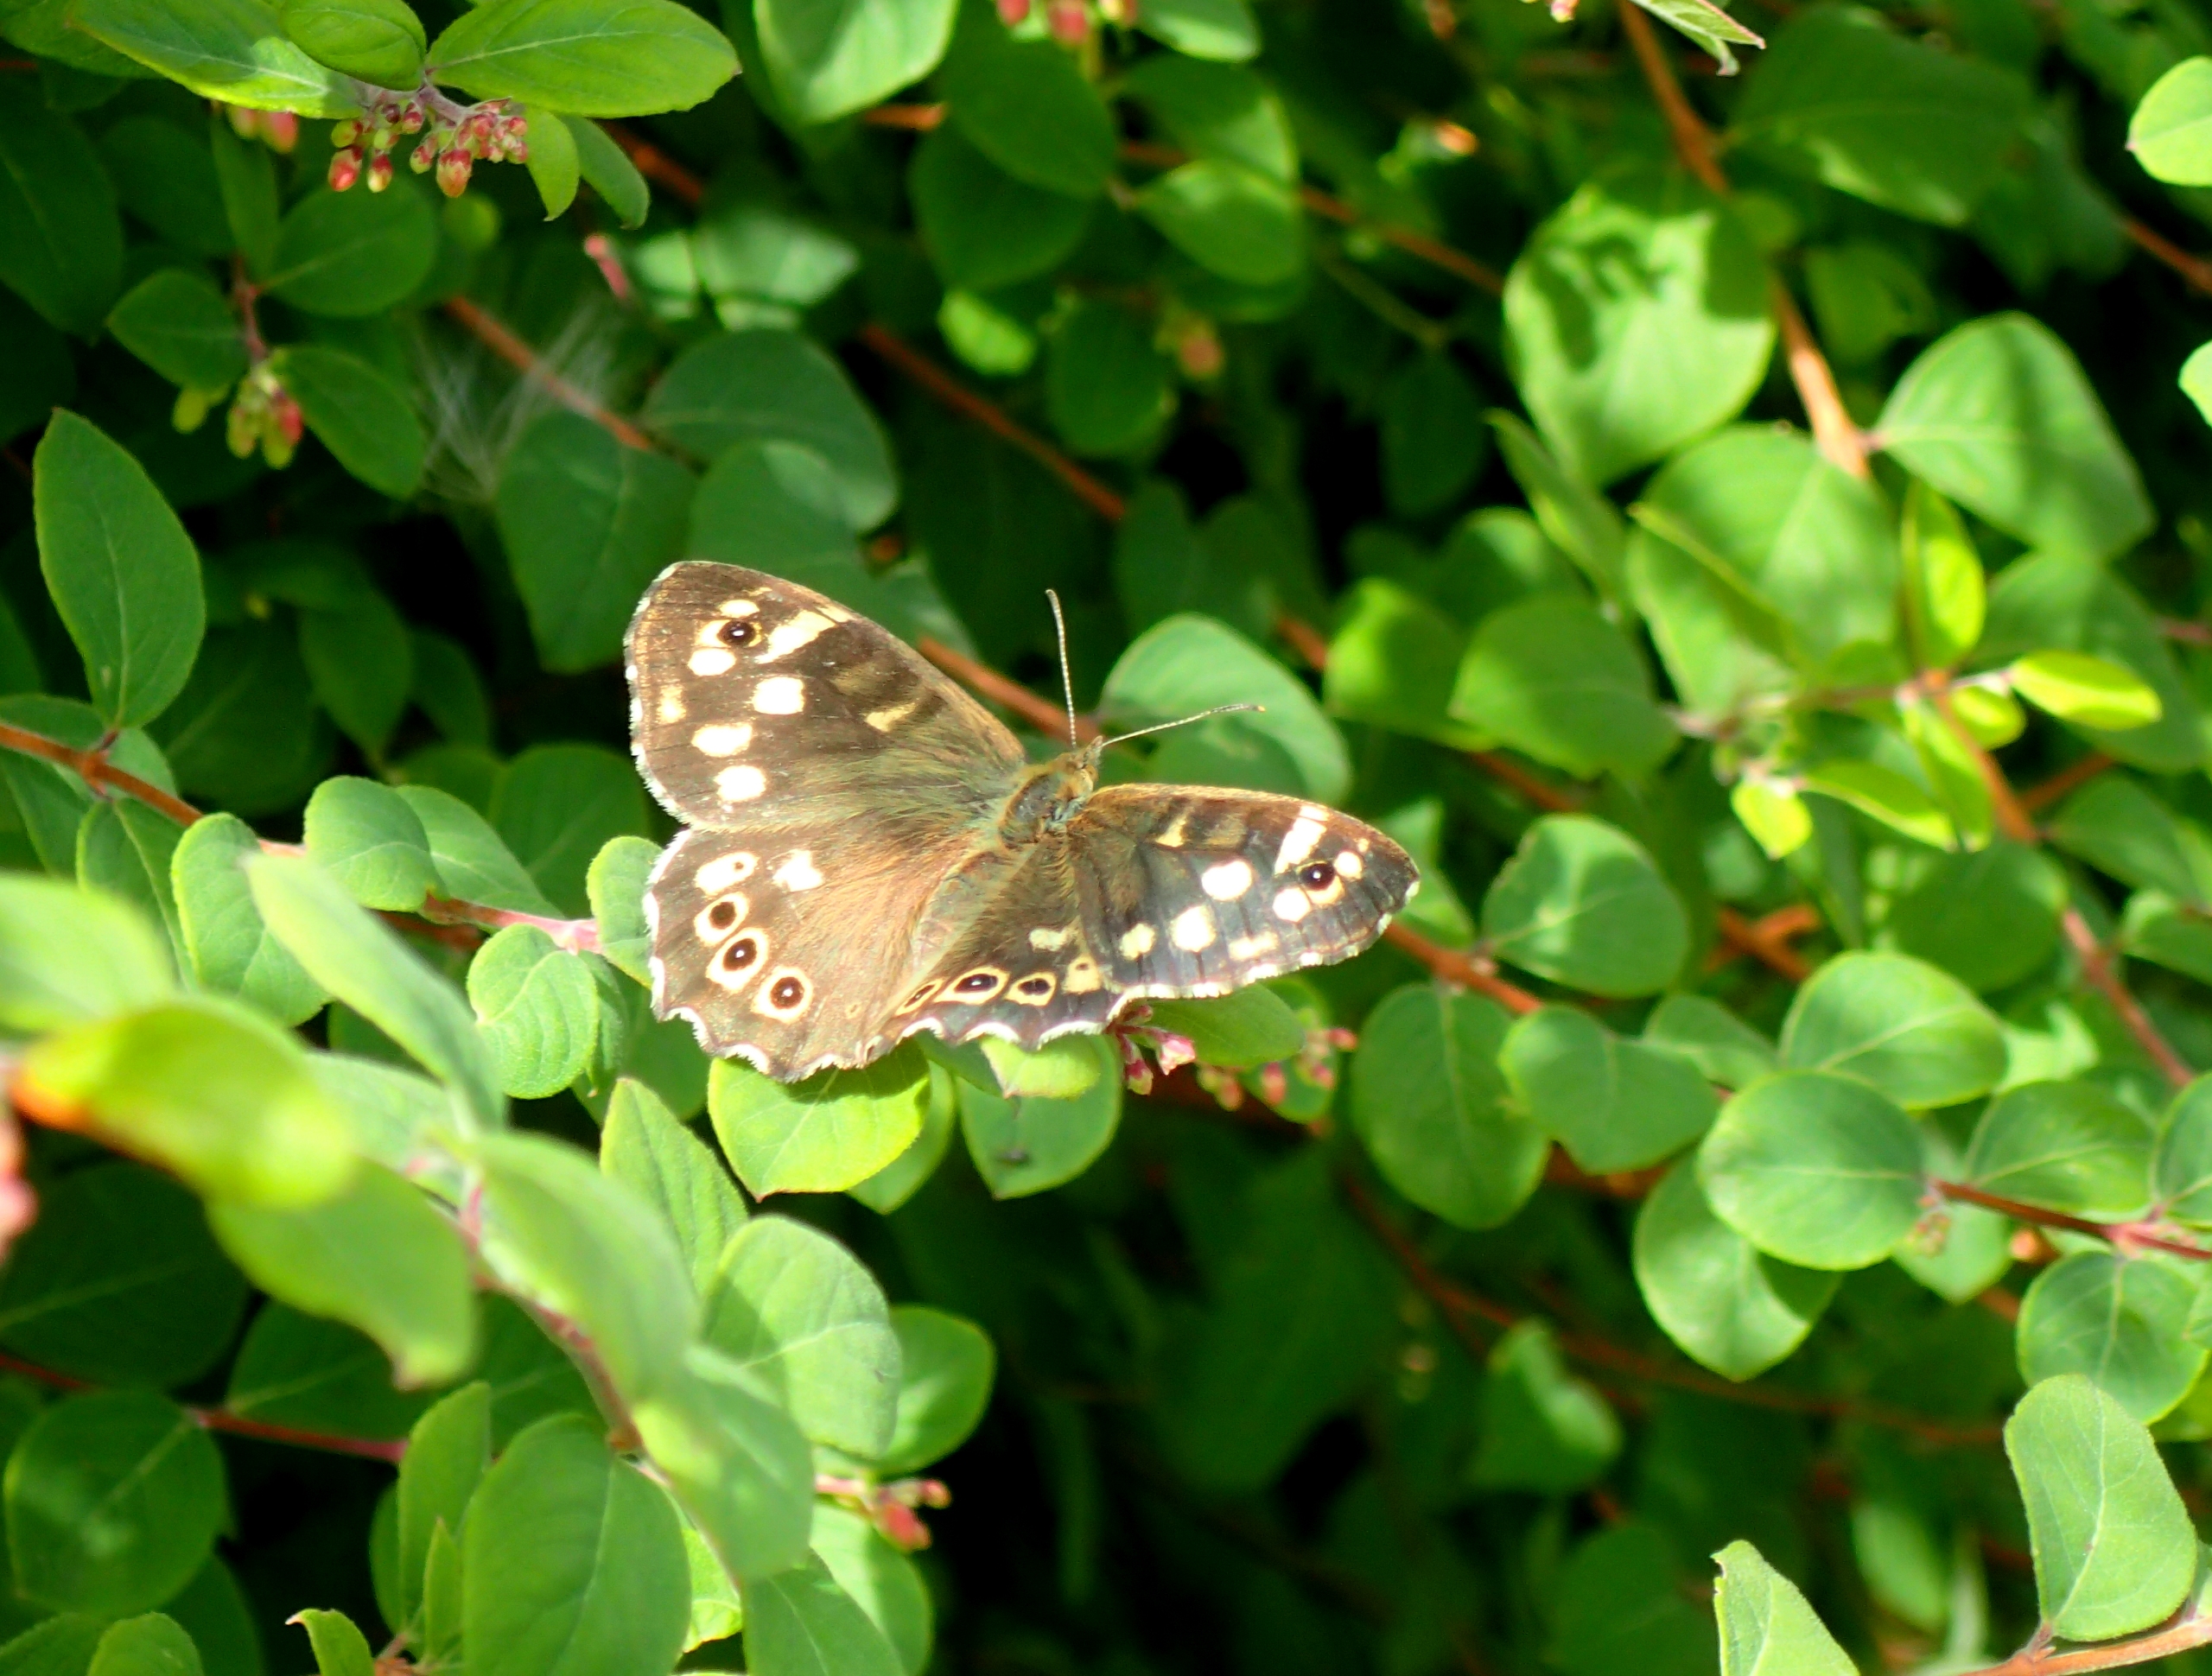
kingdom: Animalia
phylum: Arthropoda
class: Insecta
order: Lepidoptera
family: Nymphalidae
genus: Pararge
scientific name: Pararge aegeria
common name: Skovrandøje
